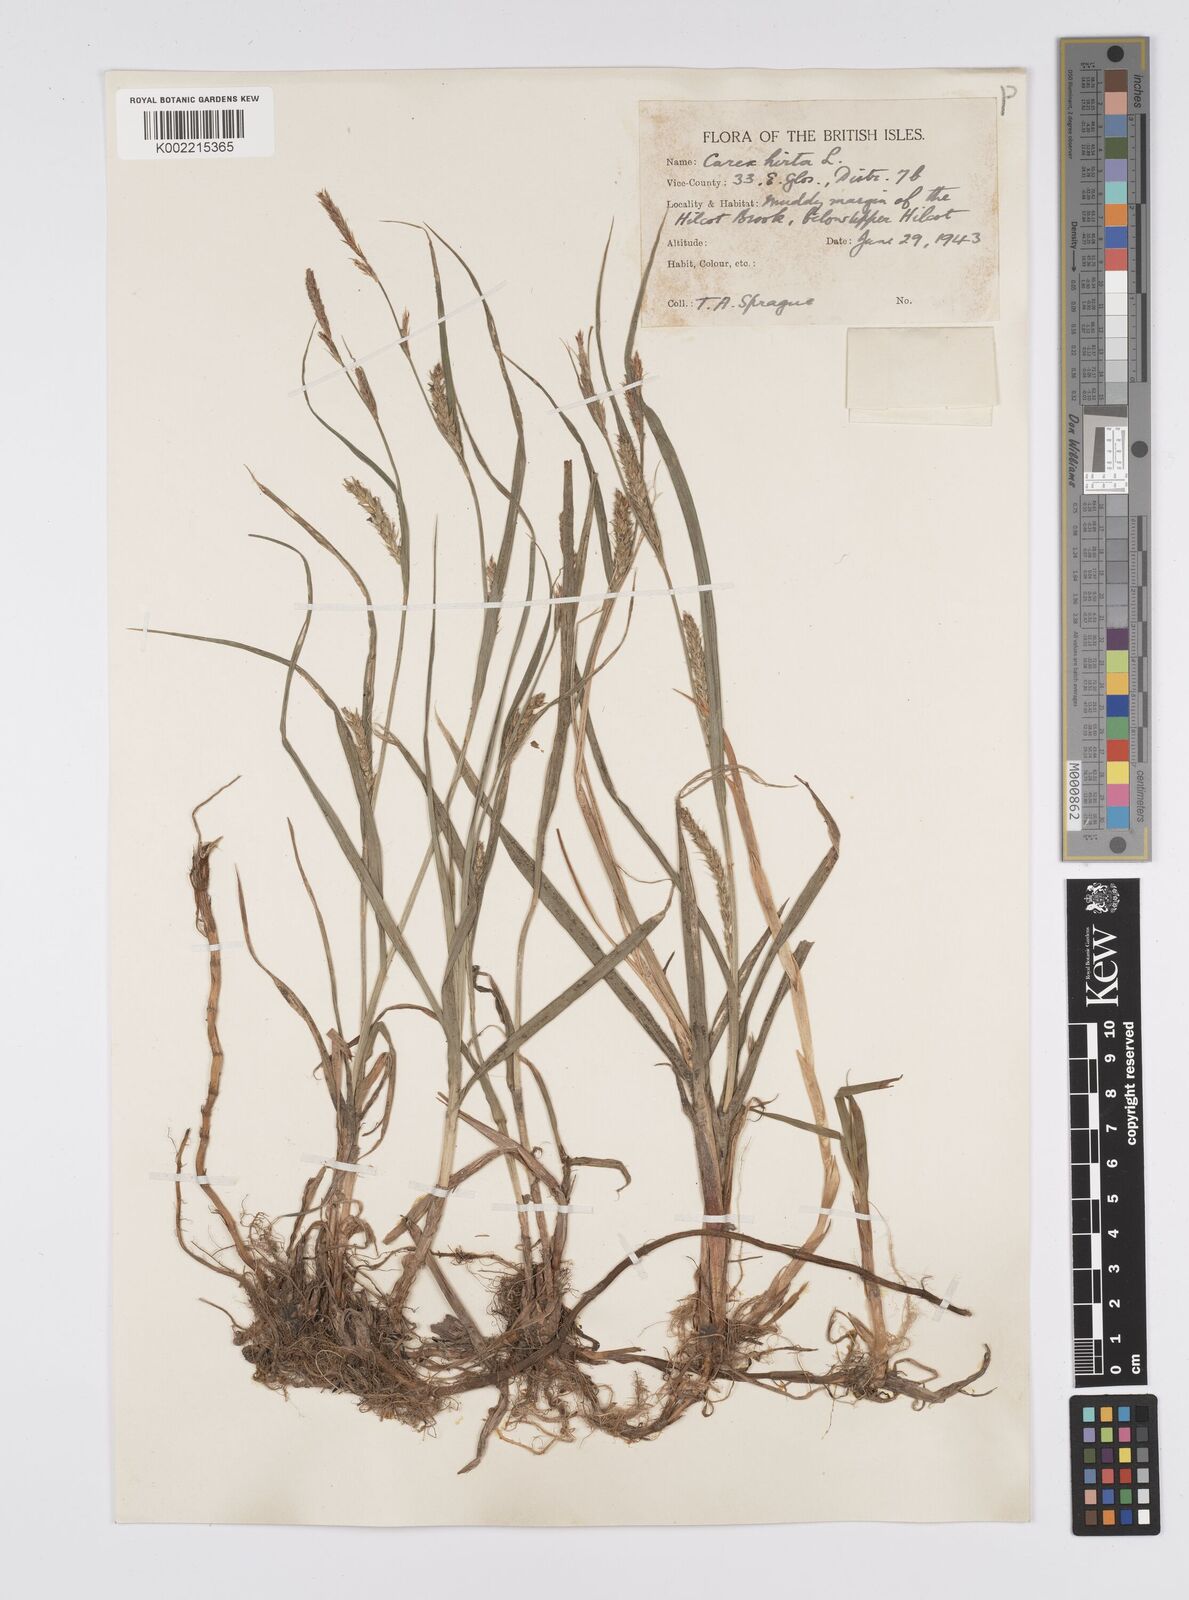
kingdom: Plantae
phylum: Tracheophyta
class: Liliopsida
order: Poales
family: Cyperaceae
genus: Carex
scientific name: Carex hirta
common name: Hairy sedge
